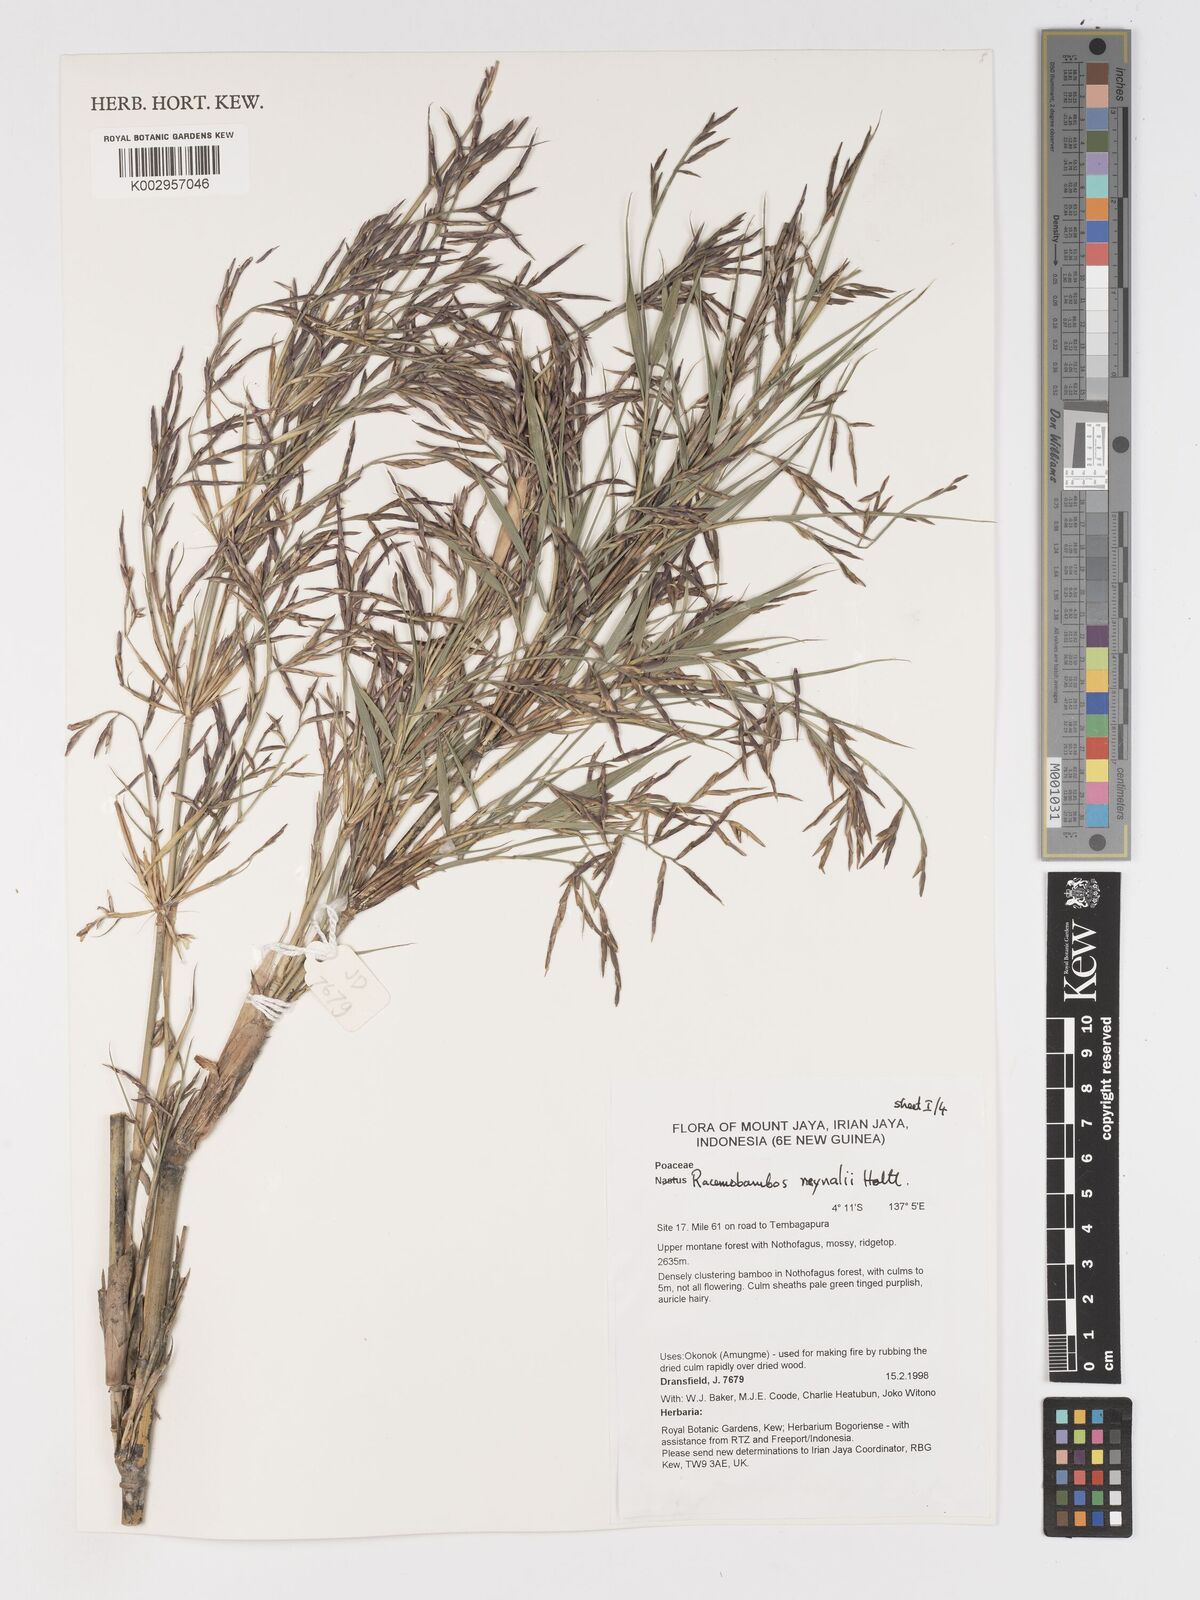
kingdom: Plantae
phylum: Tracheophyta
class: Liliopsida
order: Poales
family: Poaceae
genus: Racemobambos
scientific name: Racemobambos raynalii
